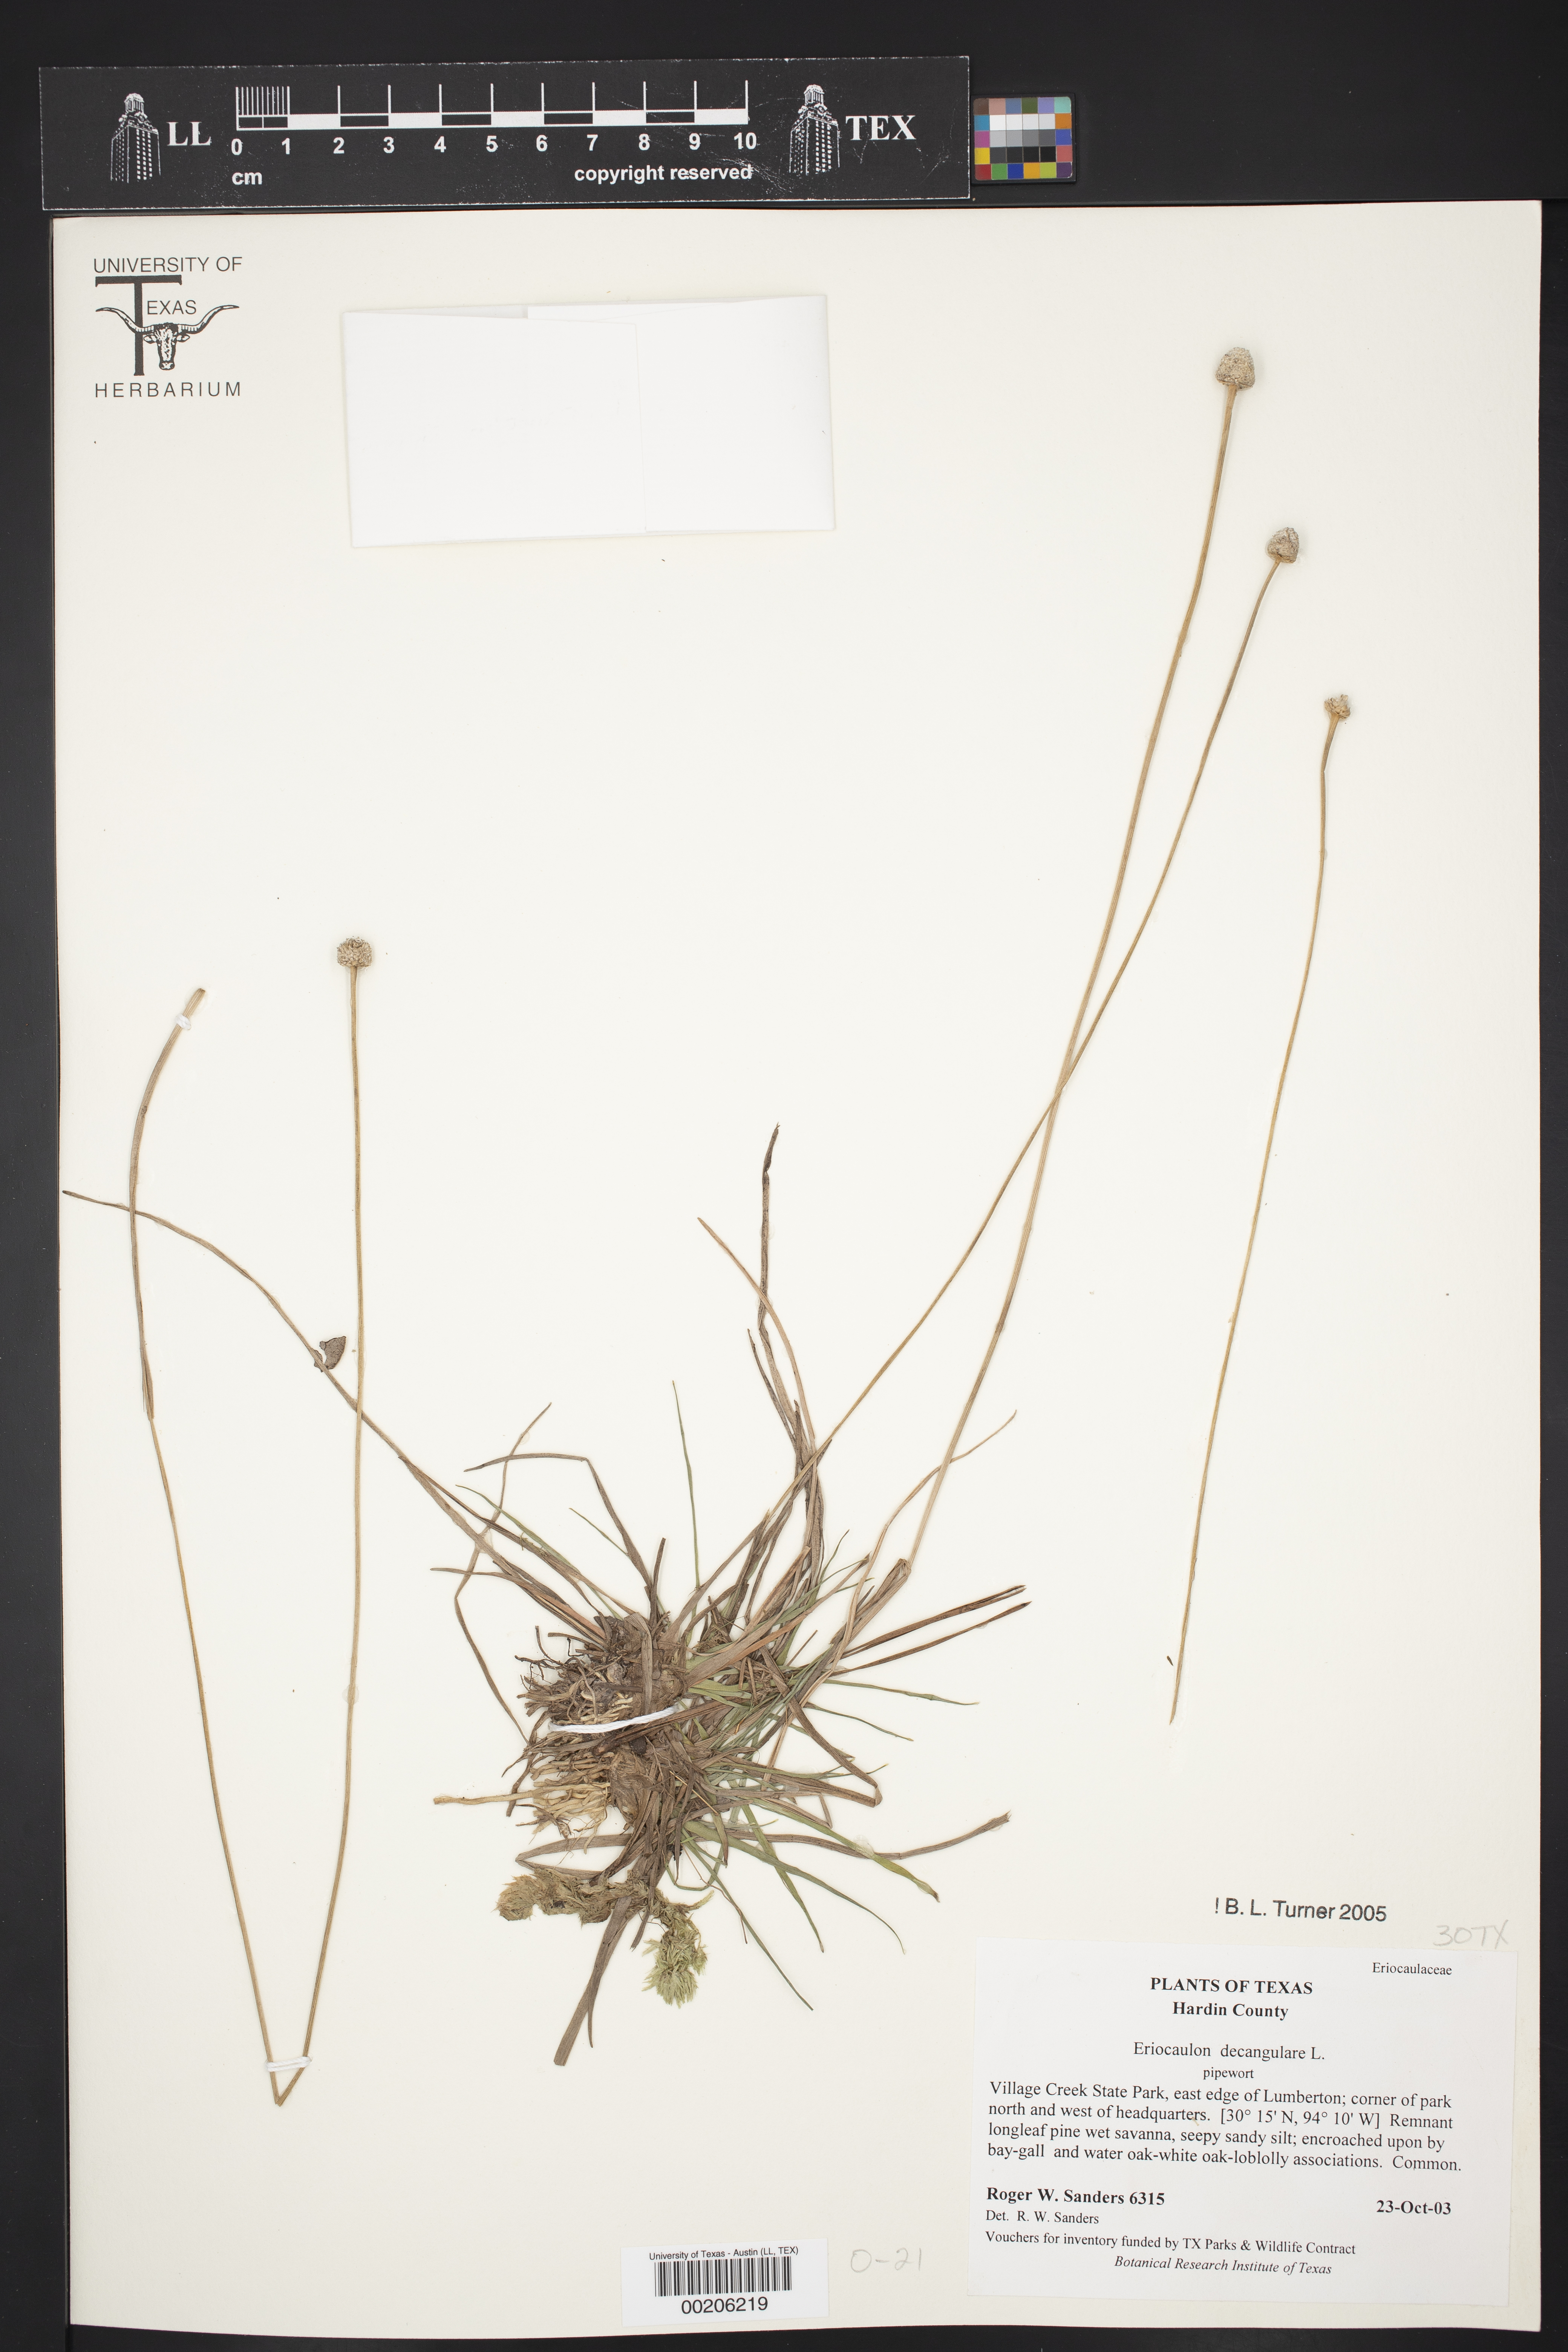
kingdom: Plantae
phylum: Tracheophyta
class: Liliopsida
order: Poales
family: Eriocaulaceae
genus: Eriocaulon
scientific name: Eriocaulon decangulare
